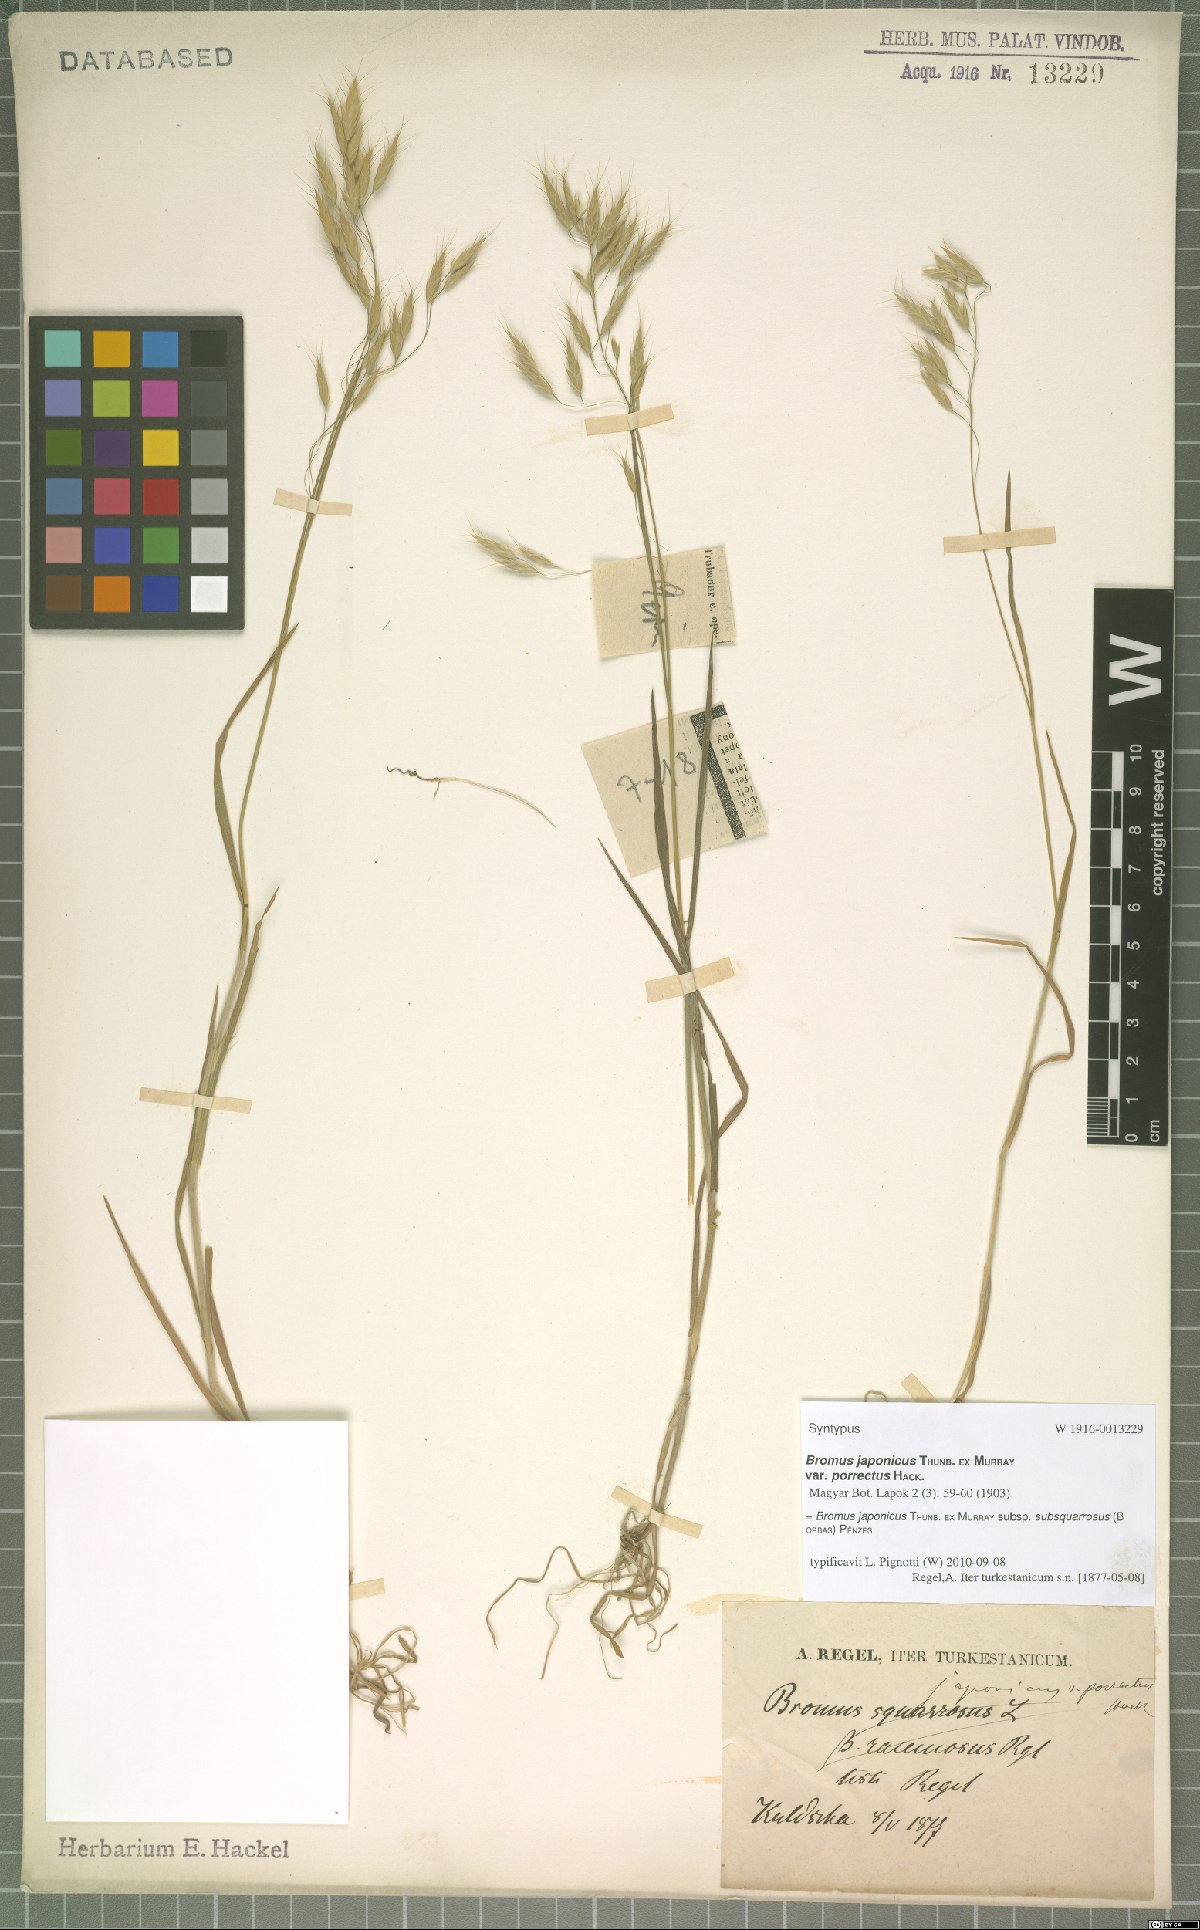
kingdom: Plantae
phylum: Tracheophyta
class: Liliopsida
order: Poales
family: Poaceae
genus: Bromus
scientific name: Bromus japonicus
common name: Japanese brome
